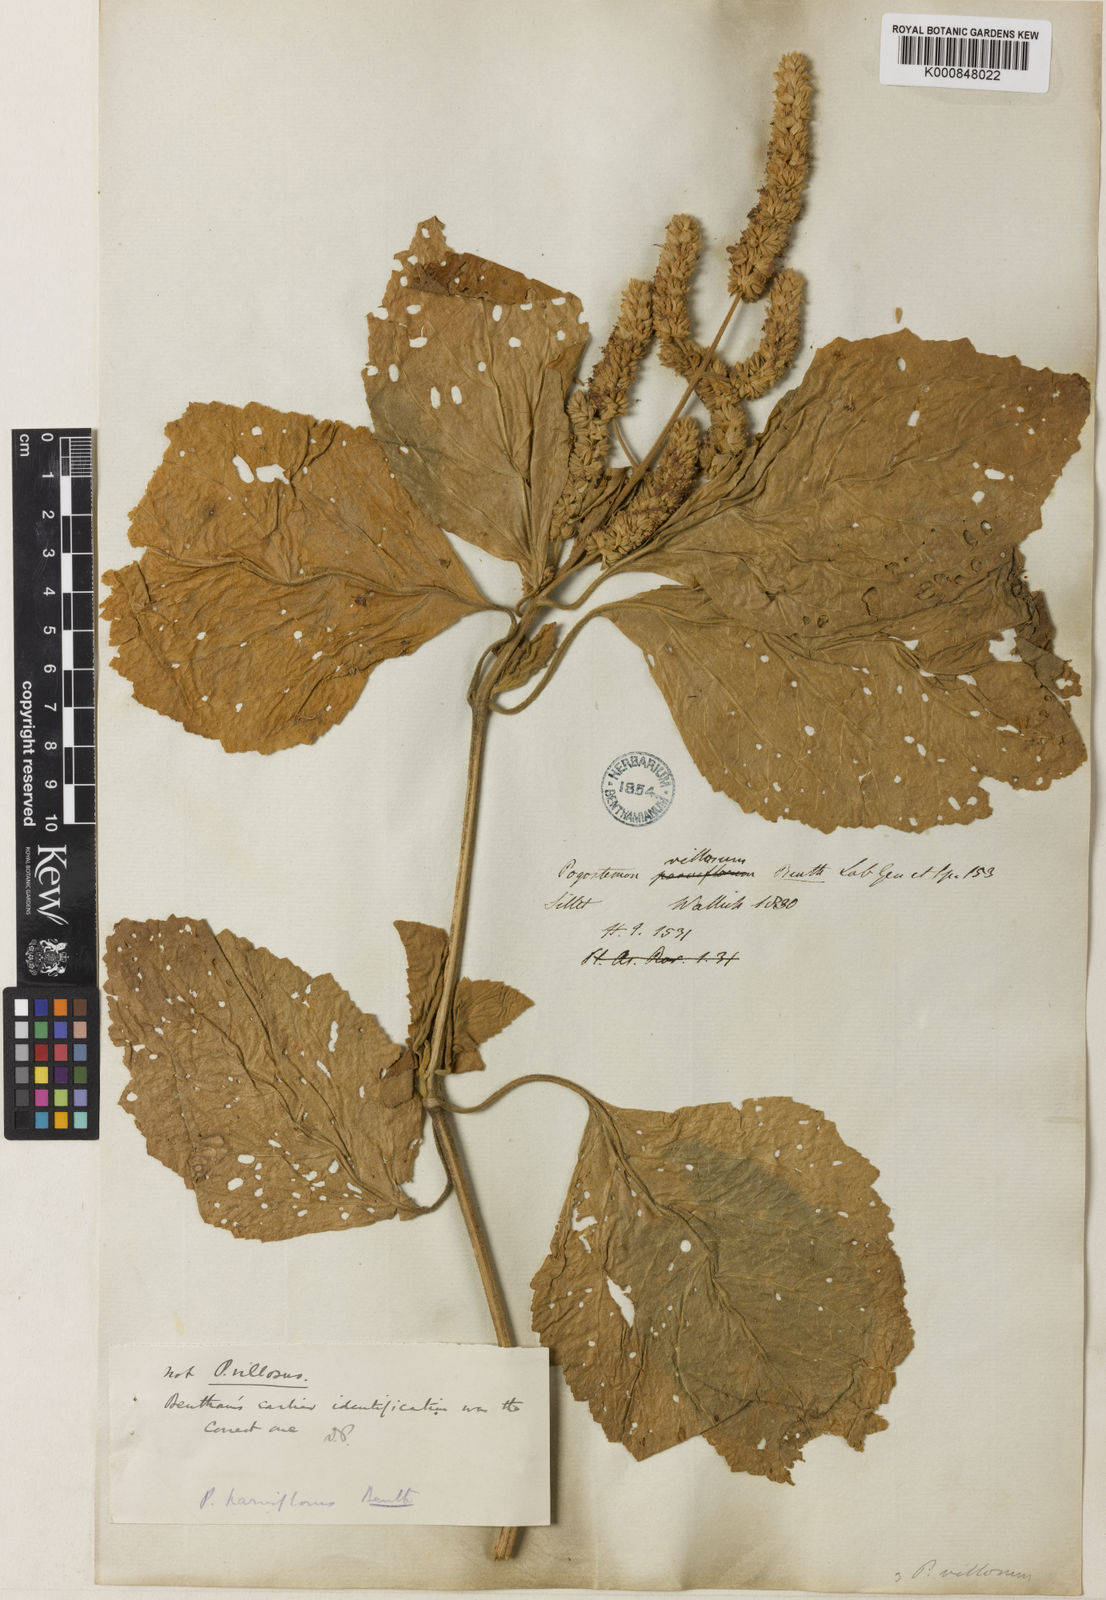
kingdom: Plantae
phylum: Tracheophyta
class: Magnoliopsida
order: Lamiales
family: Lamiaceae
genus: Pogostemon
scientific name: Pogostemon villosus
